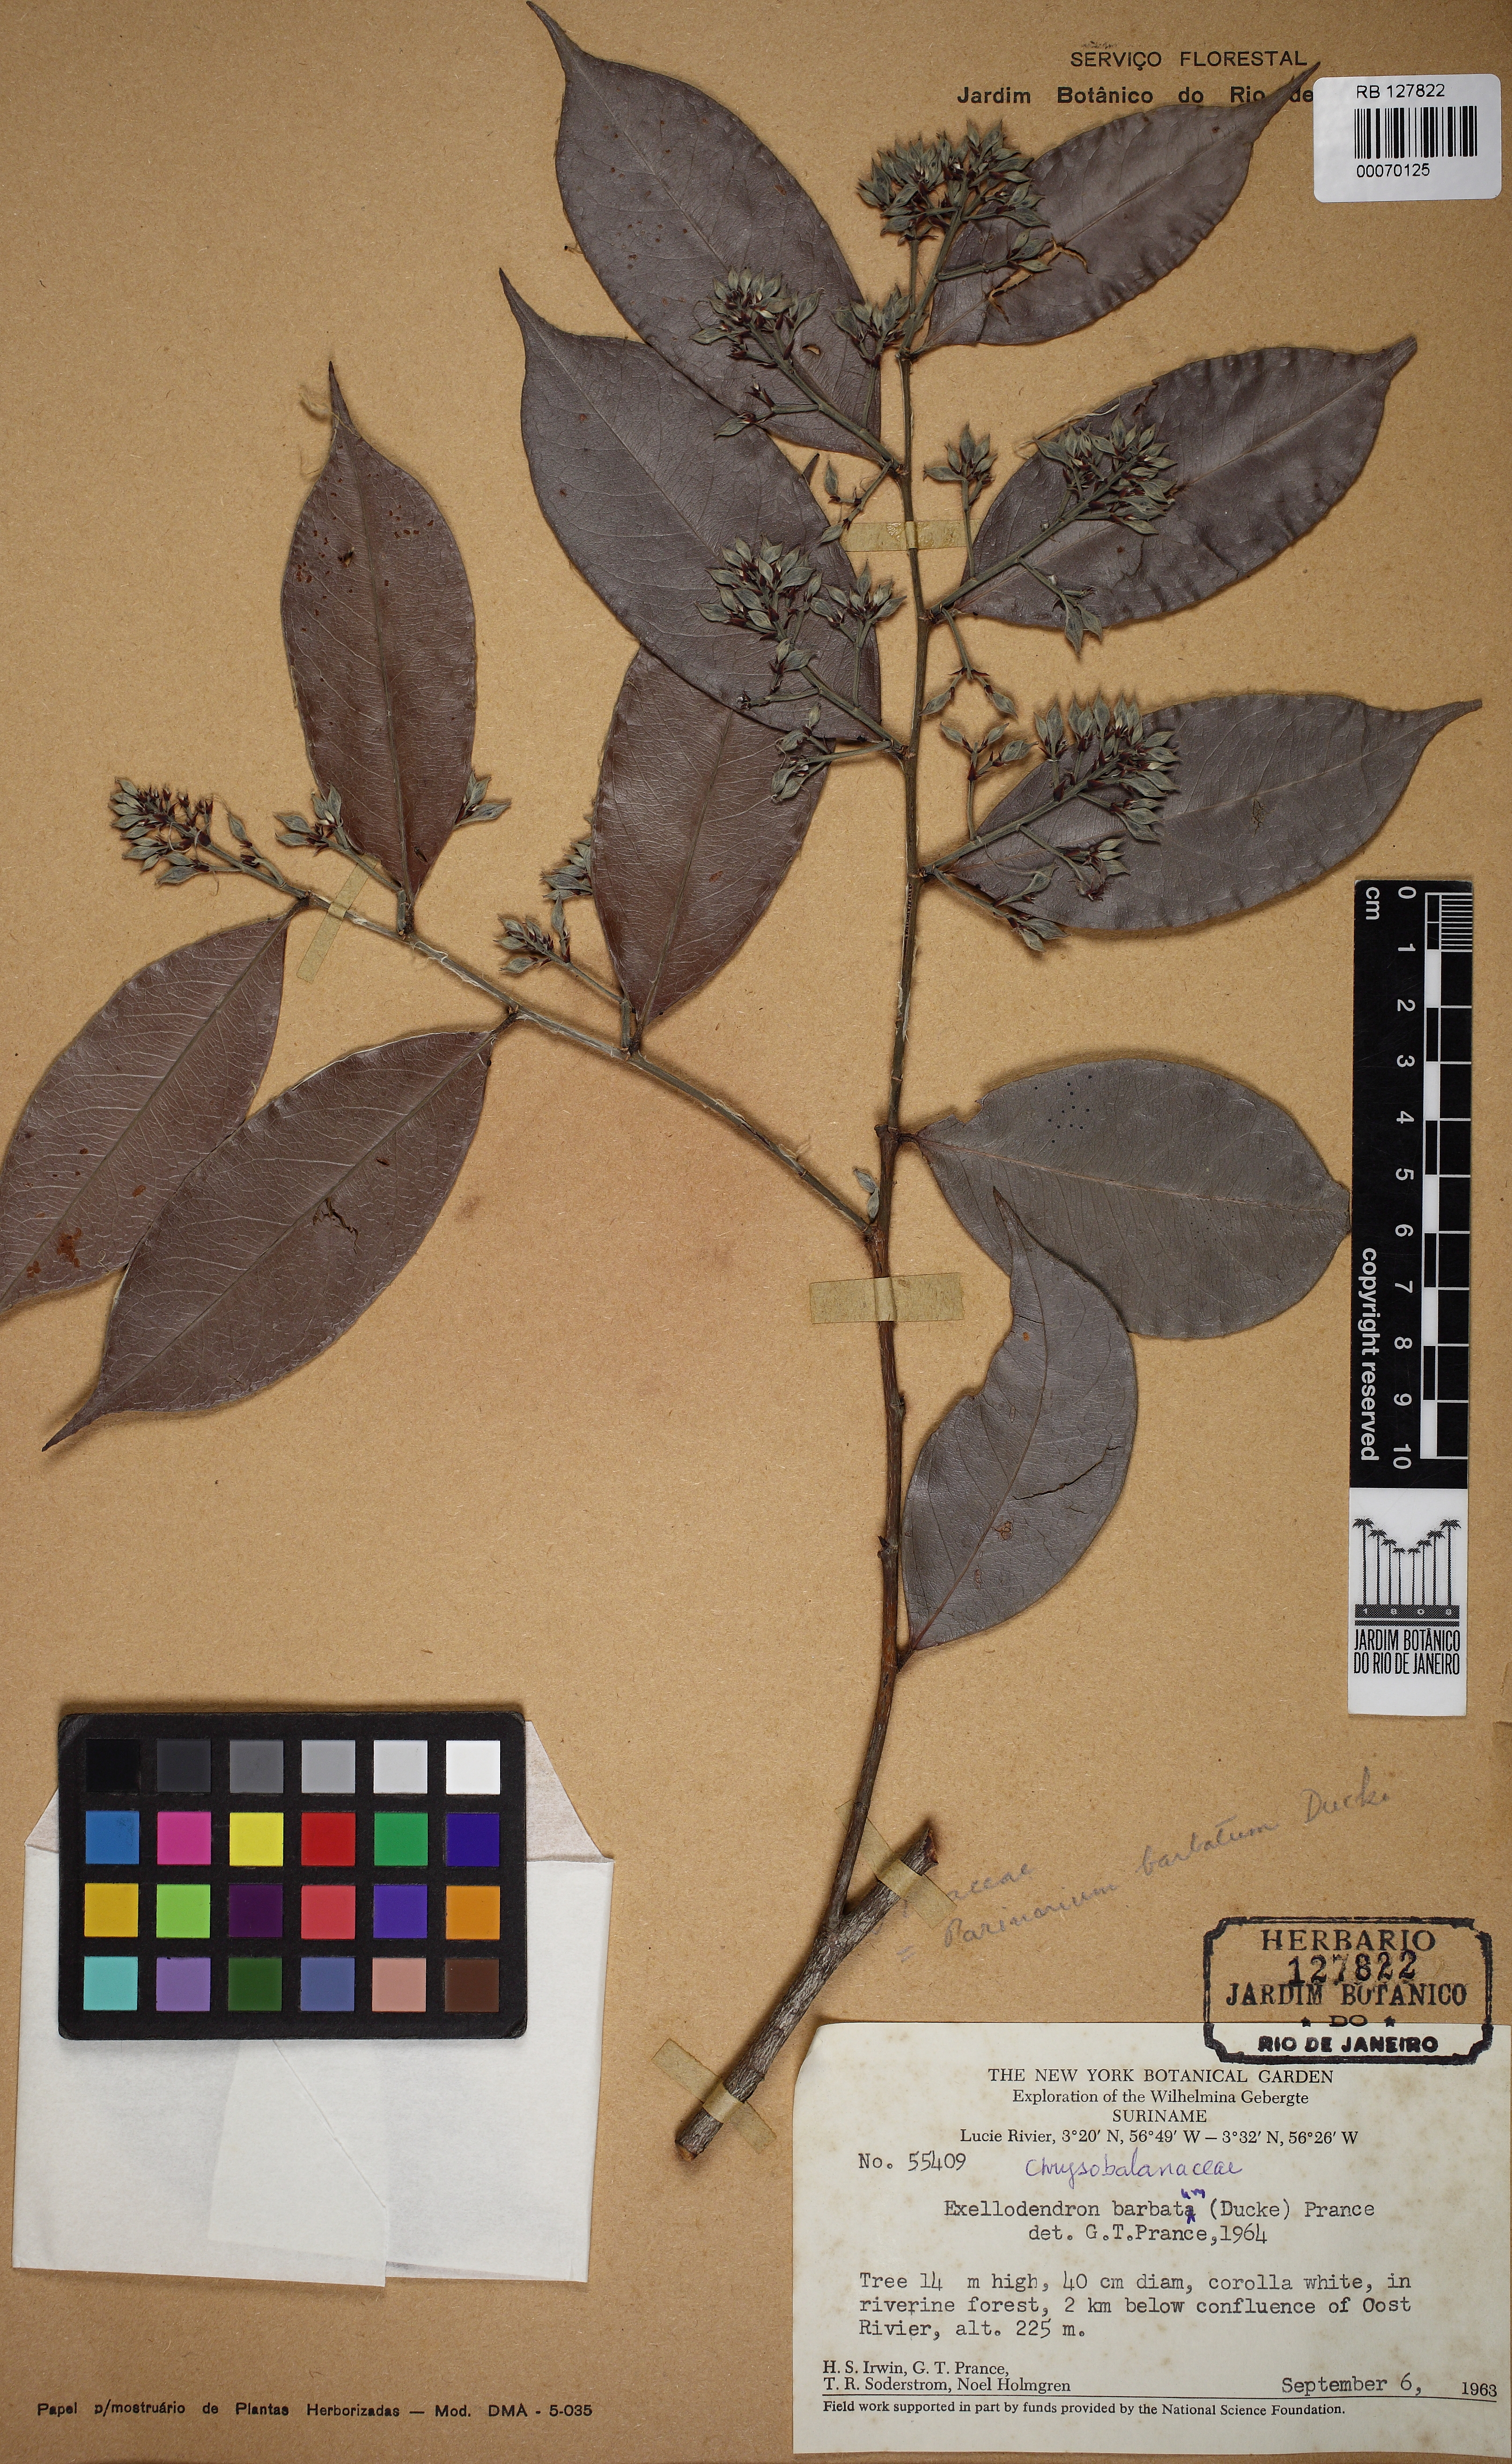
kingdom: Plantae
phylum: Tracheophyta
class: Magnoliopsida
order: Malpighiales
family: Chrysobalanaceae
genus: Exellodendron
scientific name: Exellodendron barbatum
